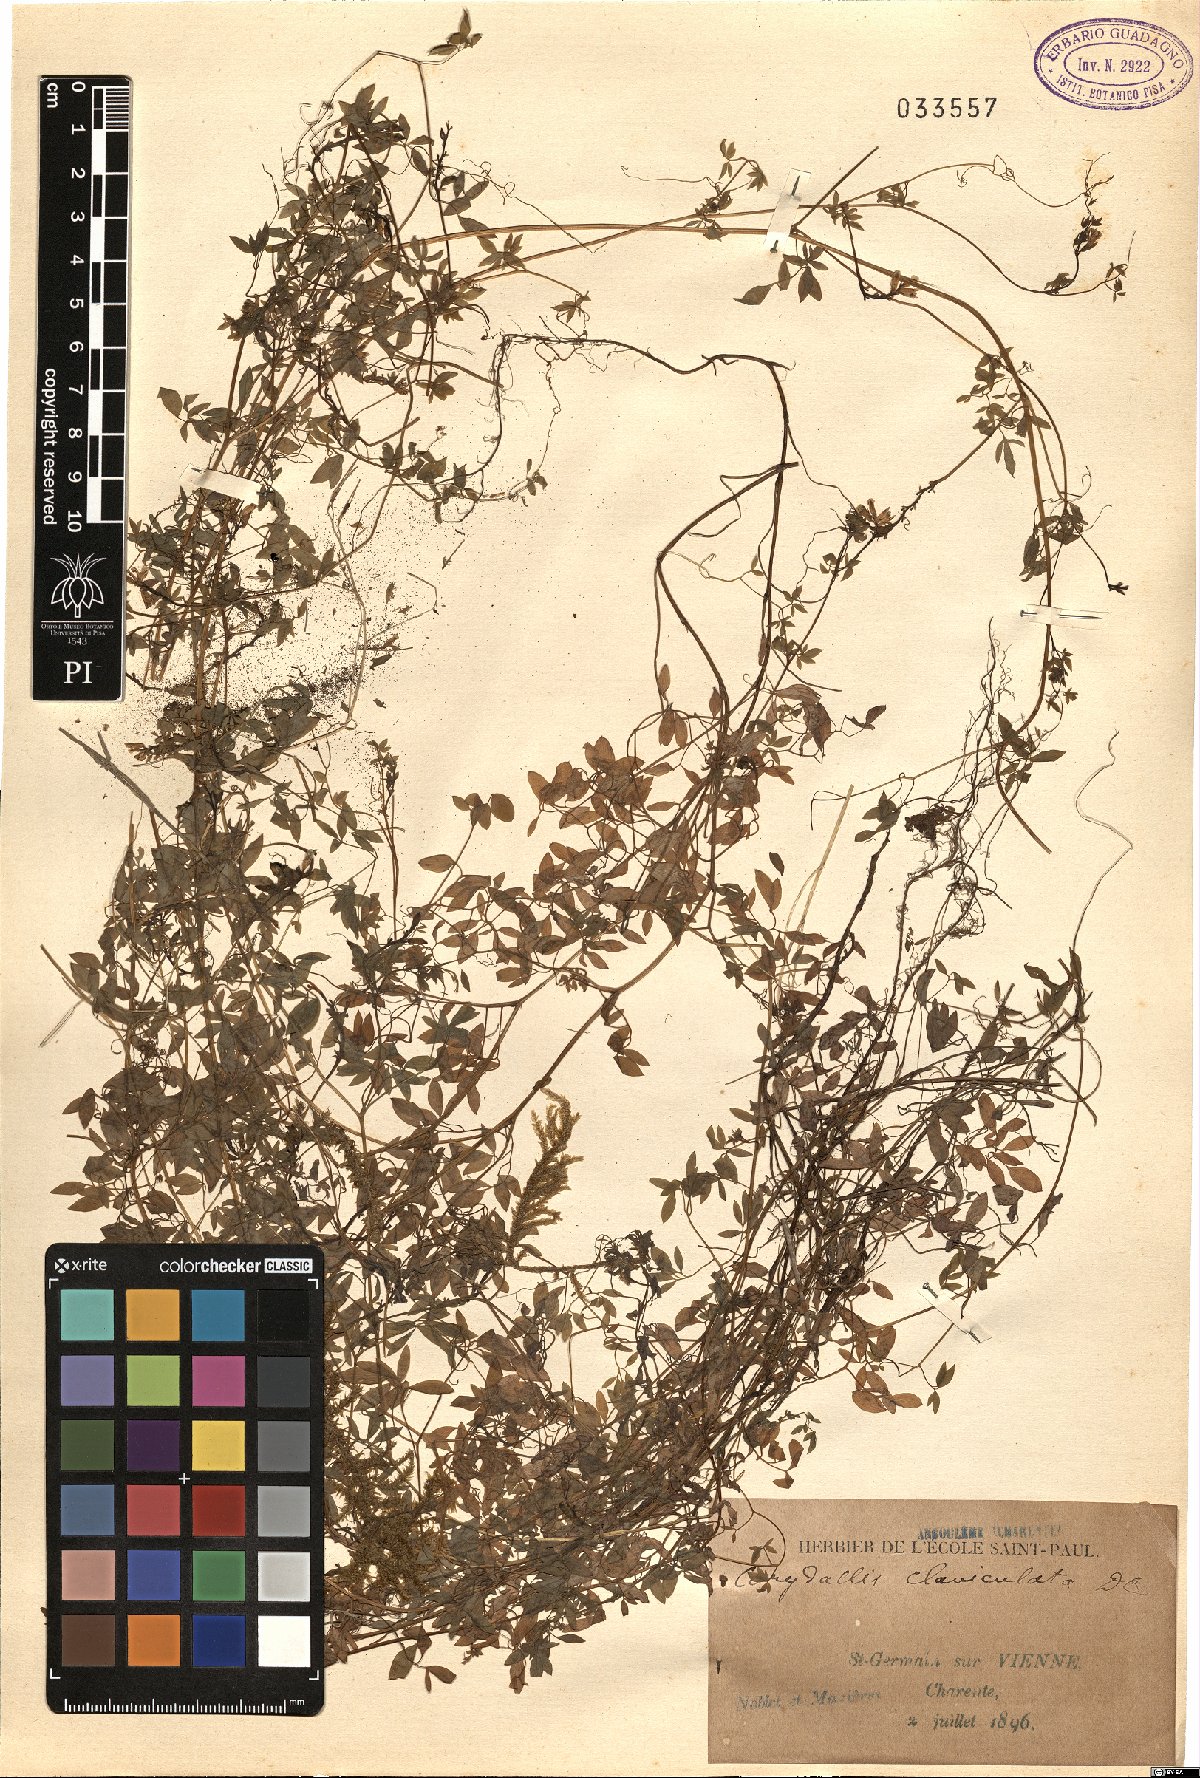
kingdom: Plantae
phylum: Tracheophyta
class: Magnoliopsida
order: Ranunculales
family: Papaveraceae
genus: Ceratocapnos
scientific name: Ceratocapnos claviculata
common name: Climbing corydalis
